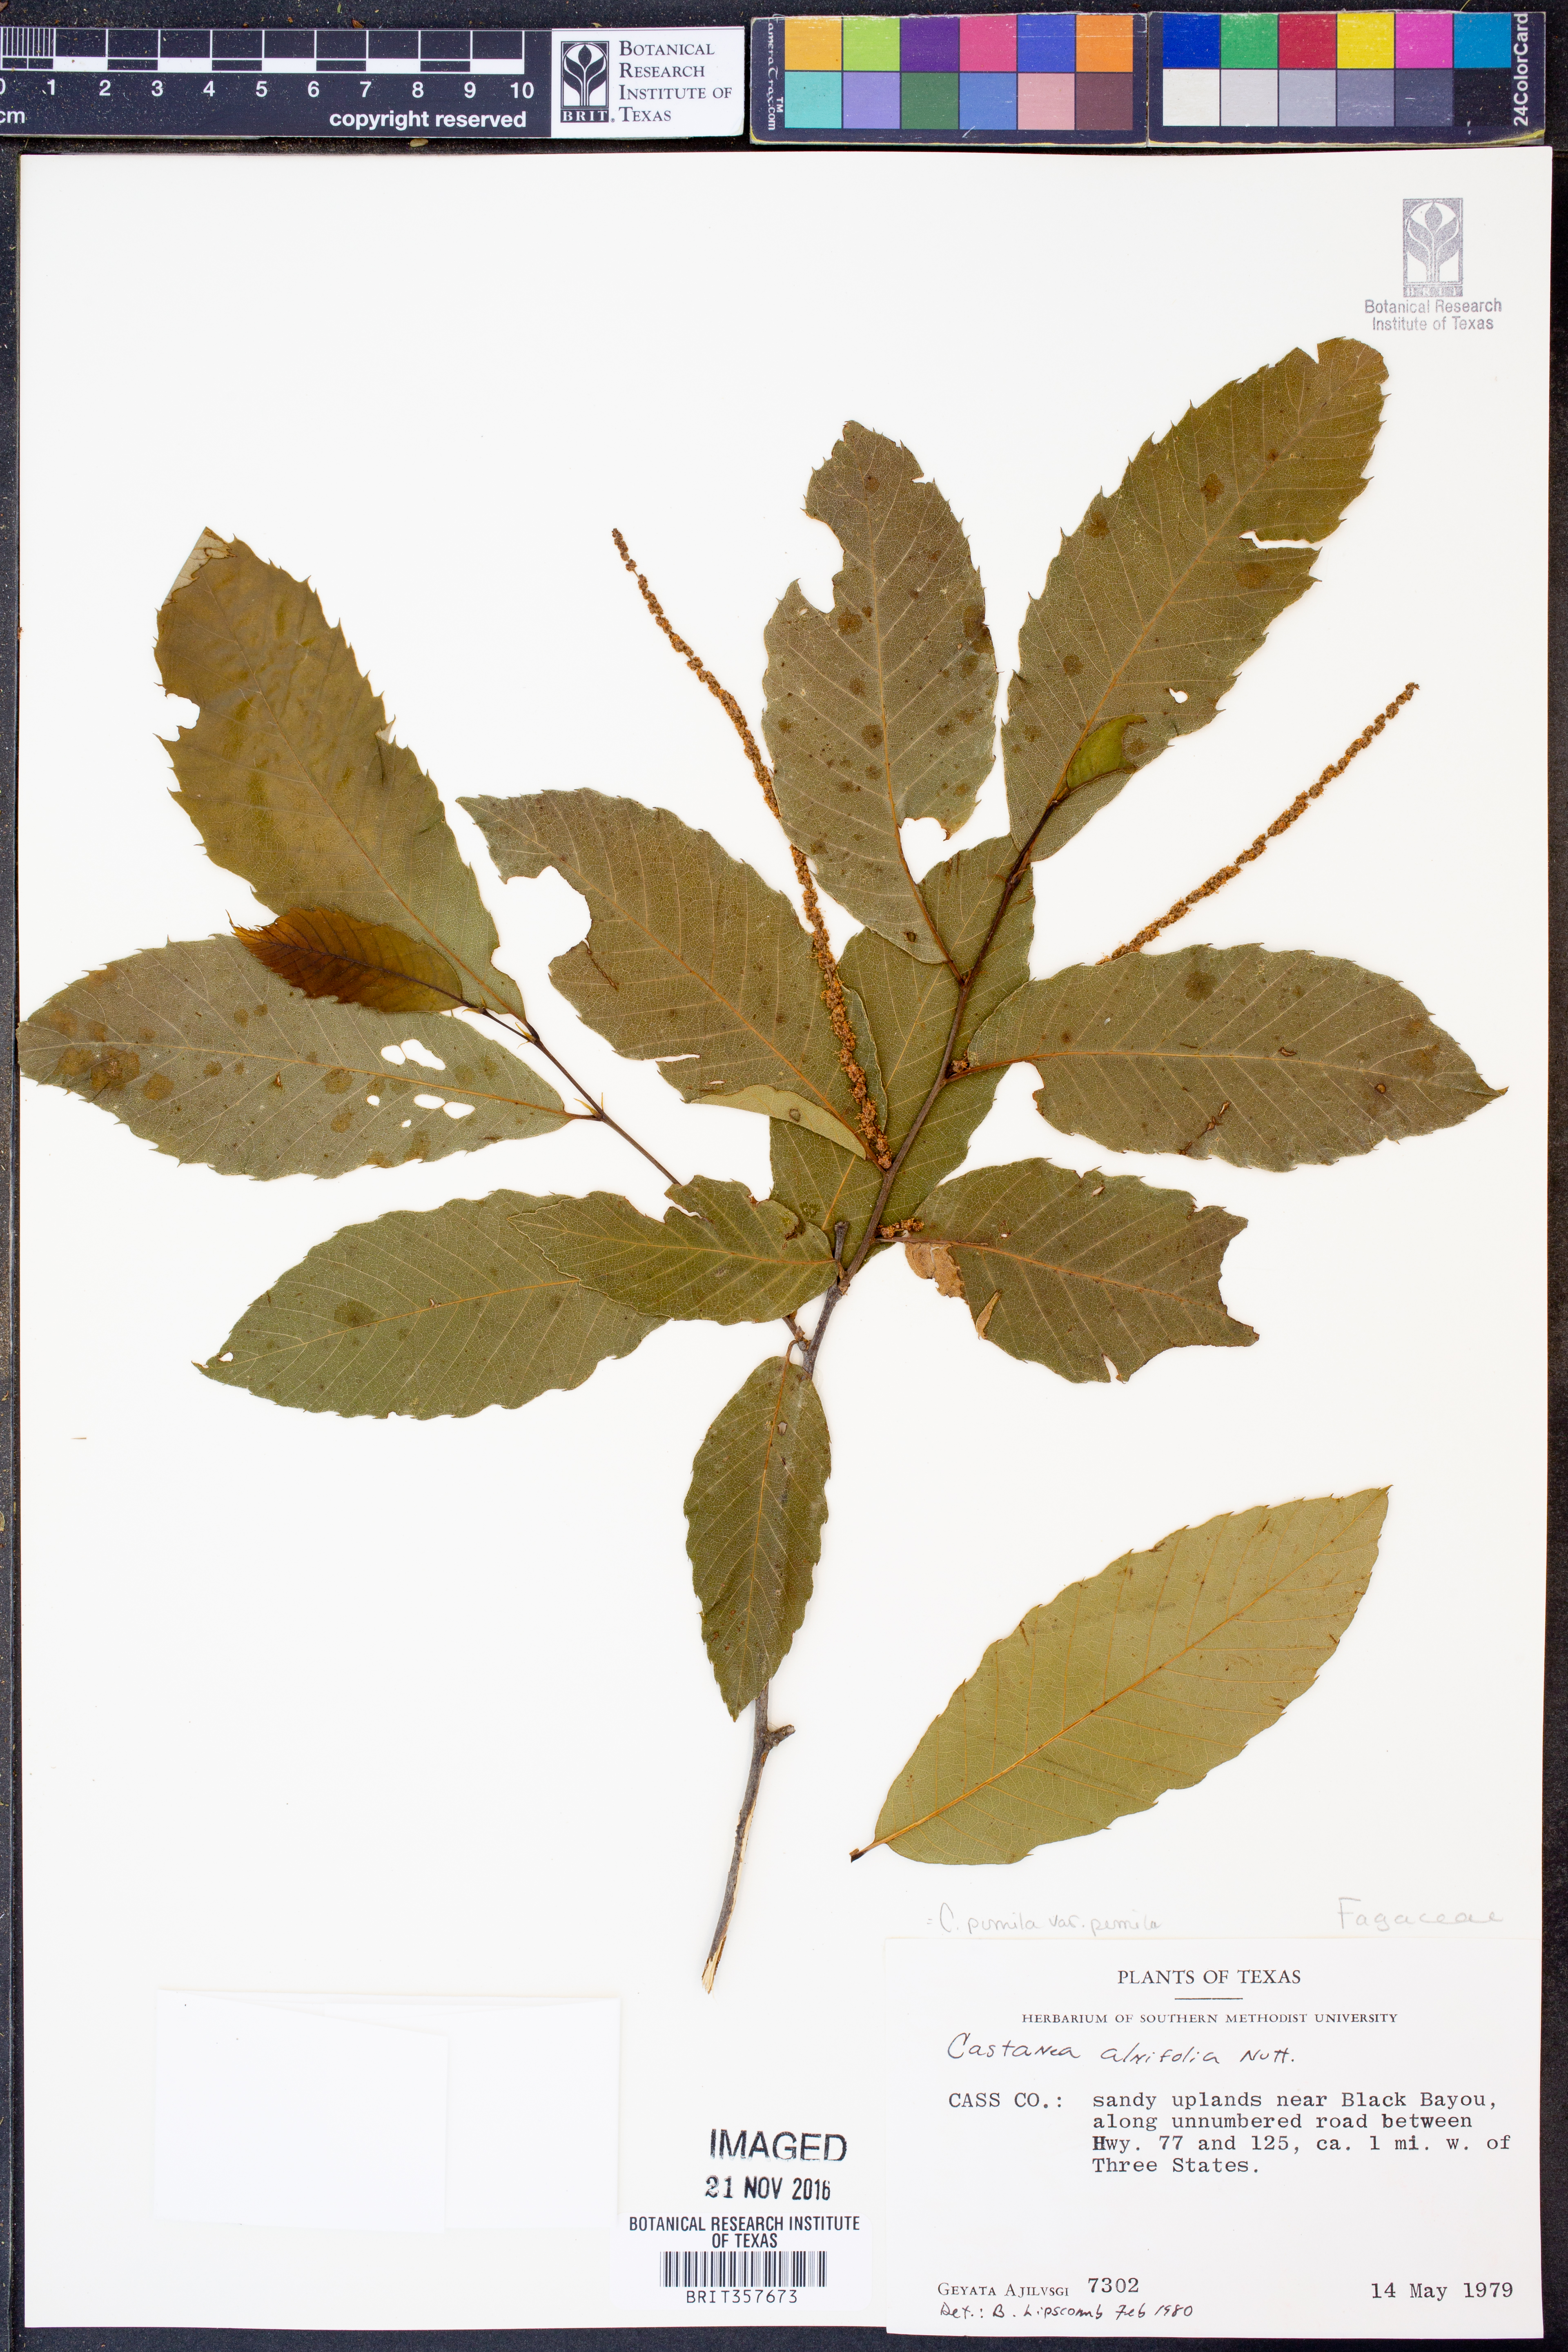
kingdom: Plantae
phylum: Tracheophyta
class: Magnoliopsida
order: Fagales
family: Fagaceae
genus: Castanea
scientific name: Castanea pumila
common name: Chinkapin
